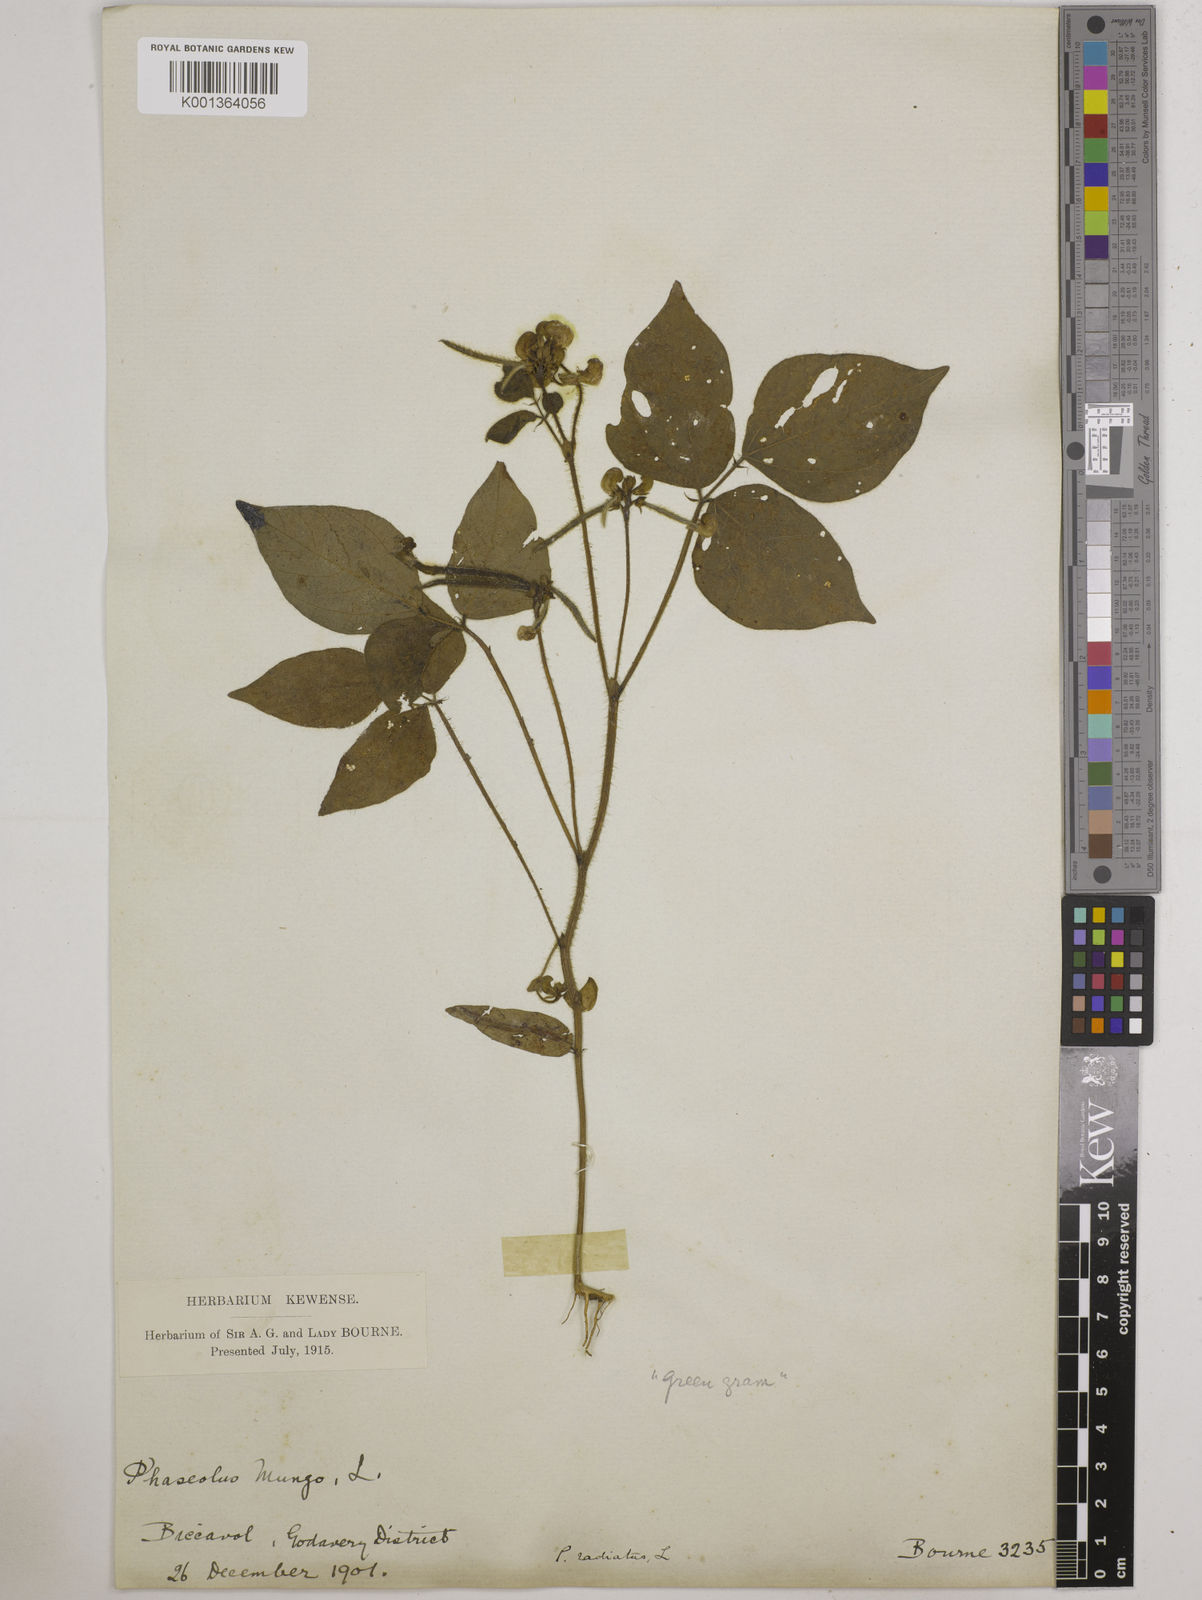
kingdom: Plantae
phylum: Tracheophyta
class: Magnoliopsida
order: Fabales
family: Fabaceae
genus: Vigna
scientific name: Vigna radiata
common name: Mung-bean
